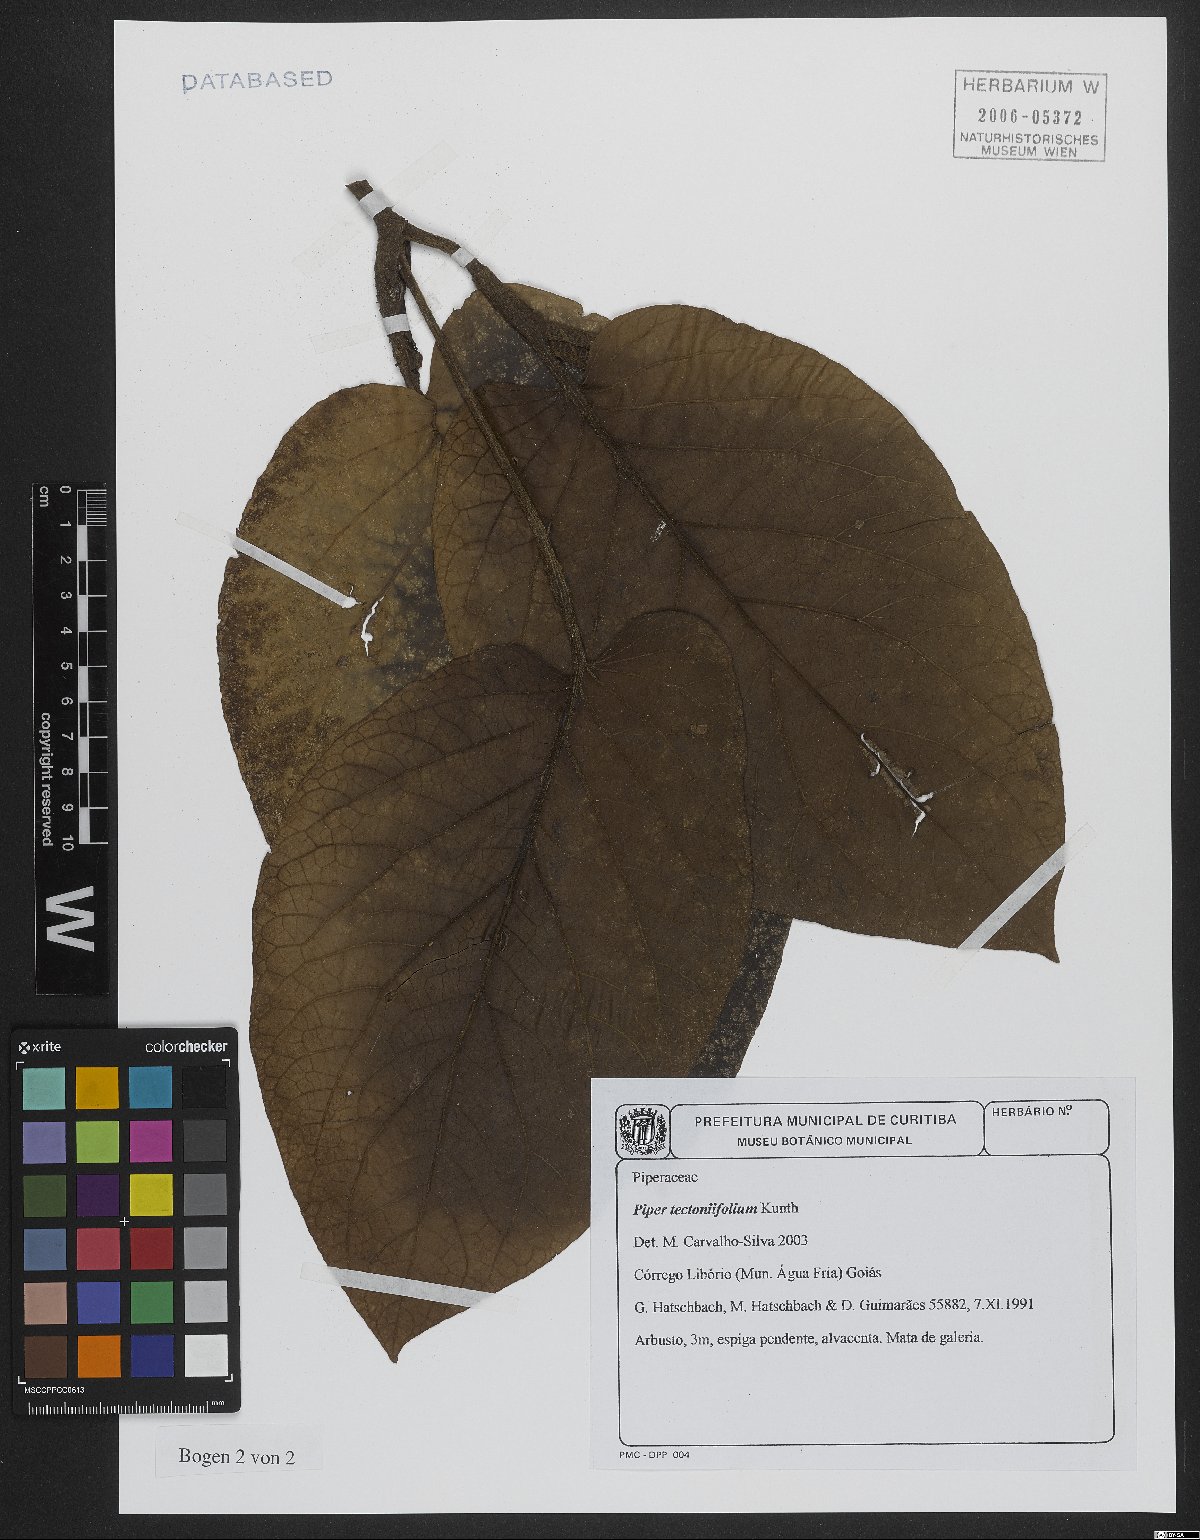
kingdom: Plantae
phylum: Tracheophyta
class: Magnoliopsida
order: Piperales
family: Piperaceae
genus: Piper
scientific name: Piper tectoniifolium
